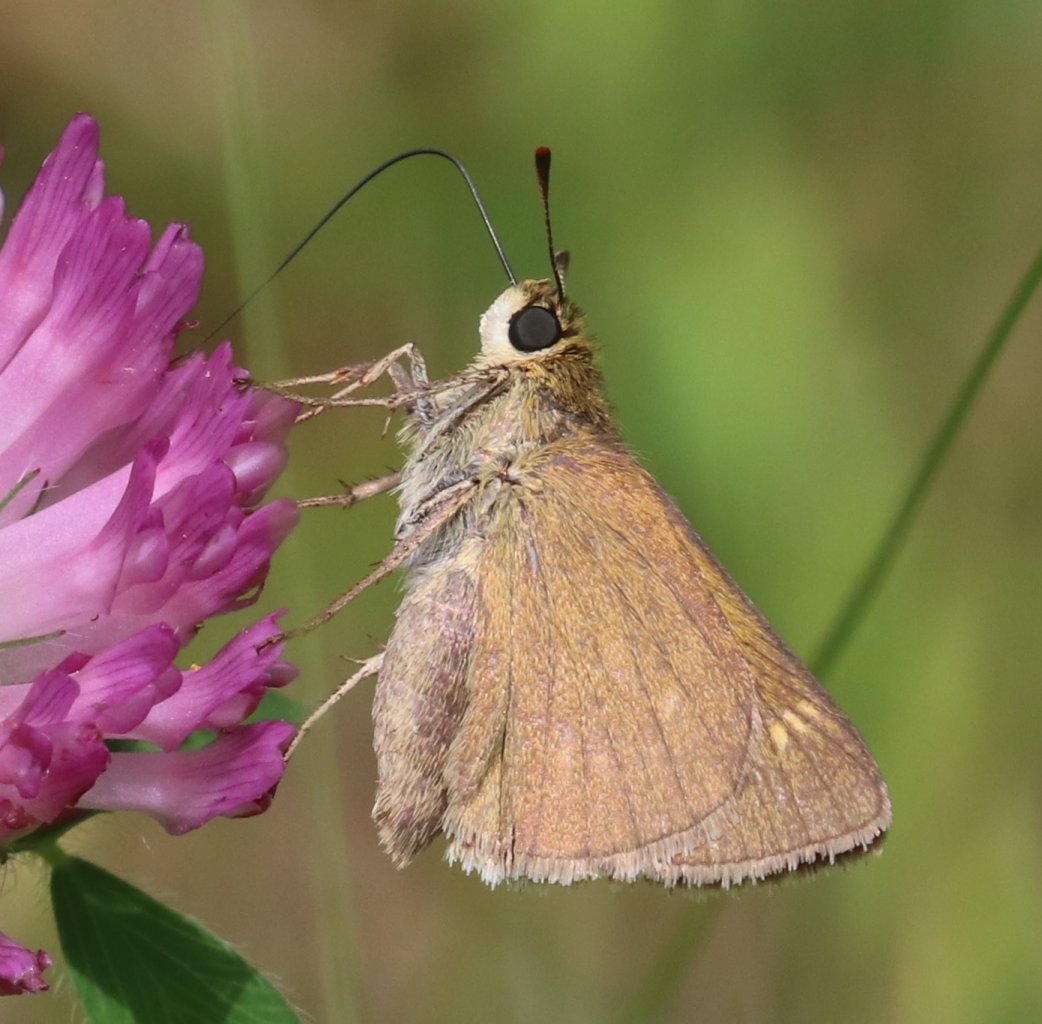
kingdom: Animalia
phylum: Arthropoda
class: Insecta
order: Lepidoptera
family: Hesperiidae
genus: Polites
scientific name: Polites
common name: Crossline Skipper
